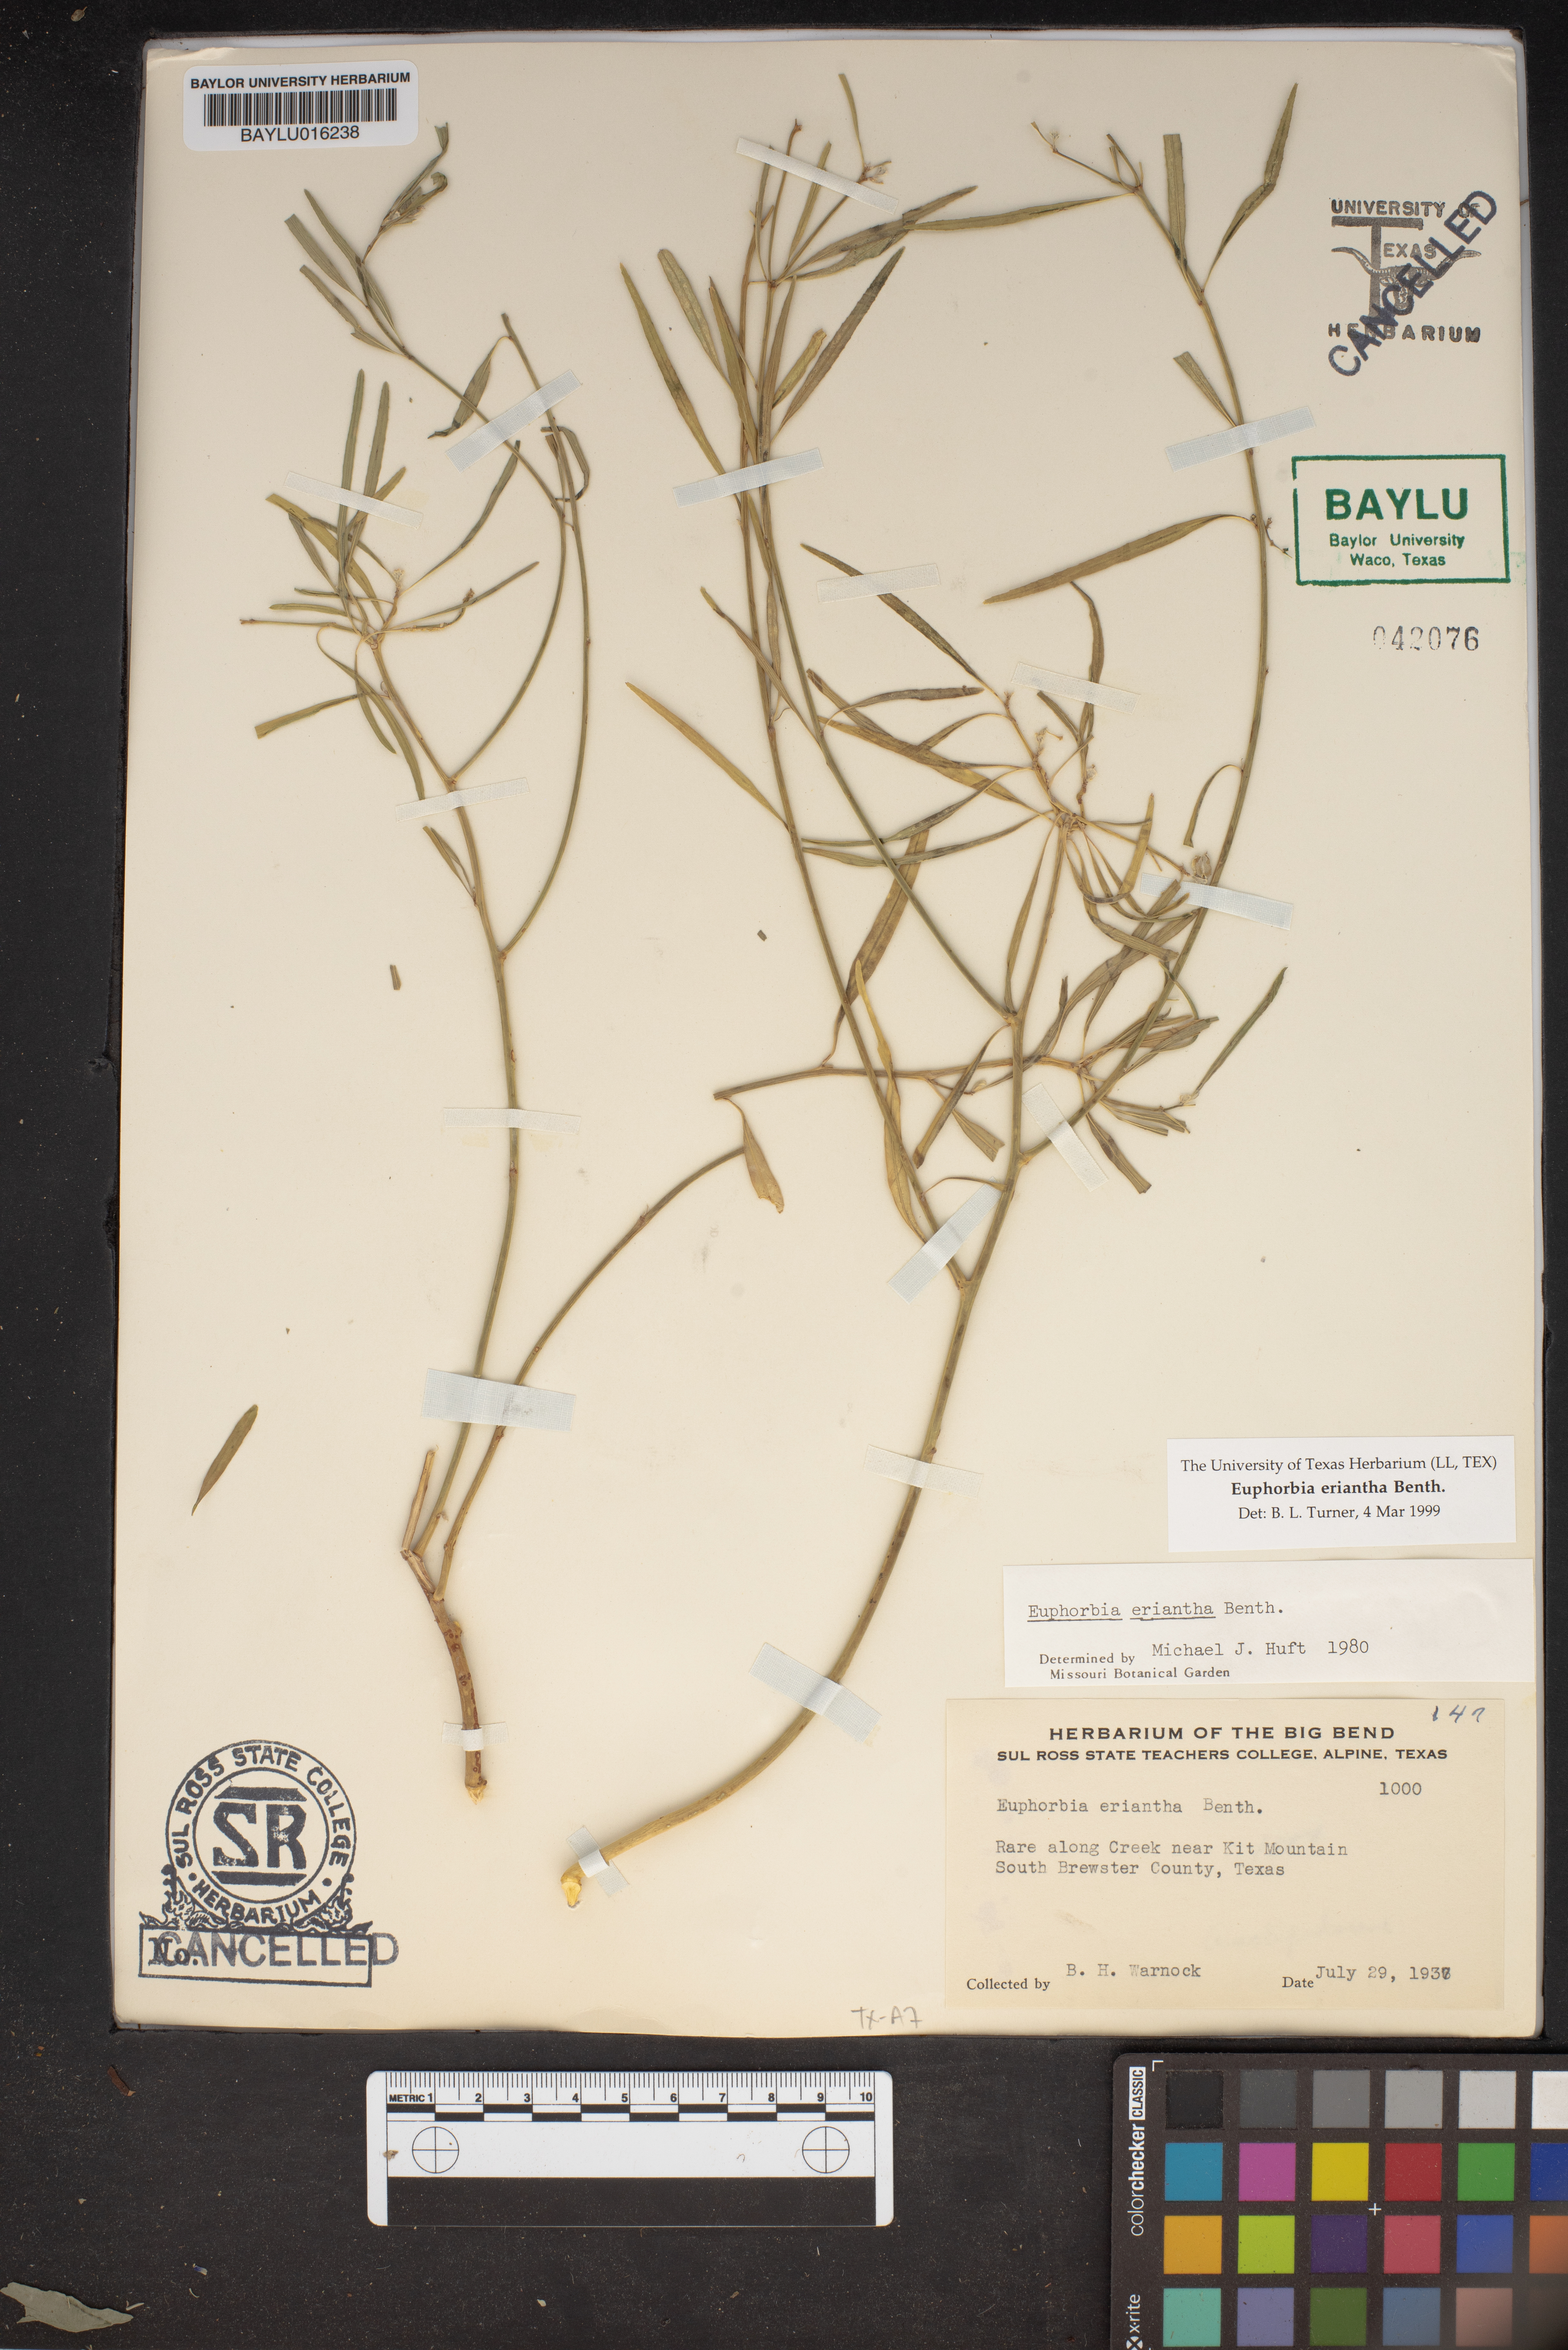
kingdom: Plantae
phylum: Tracheophyta
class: Magnoliopsida
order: Malpighiales
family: Euphorbiaceae
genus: Euphorbia
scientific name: Euphorbia eriantha
